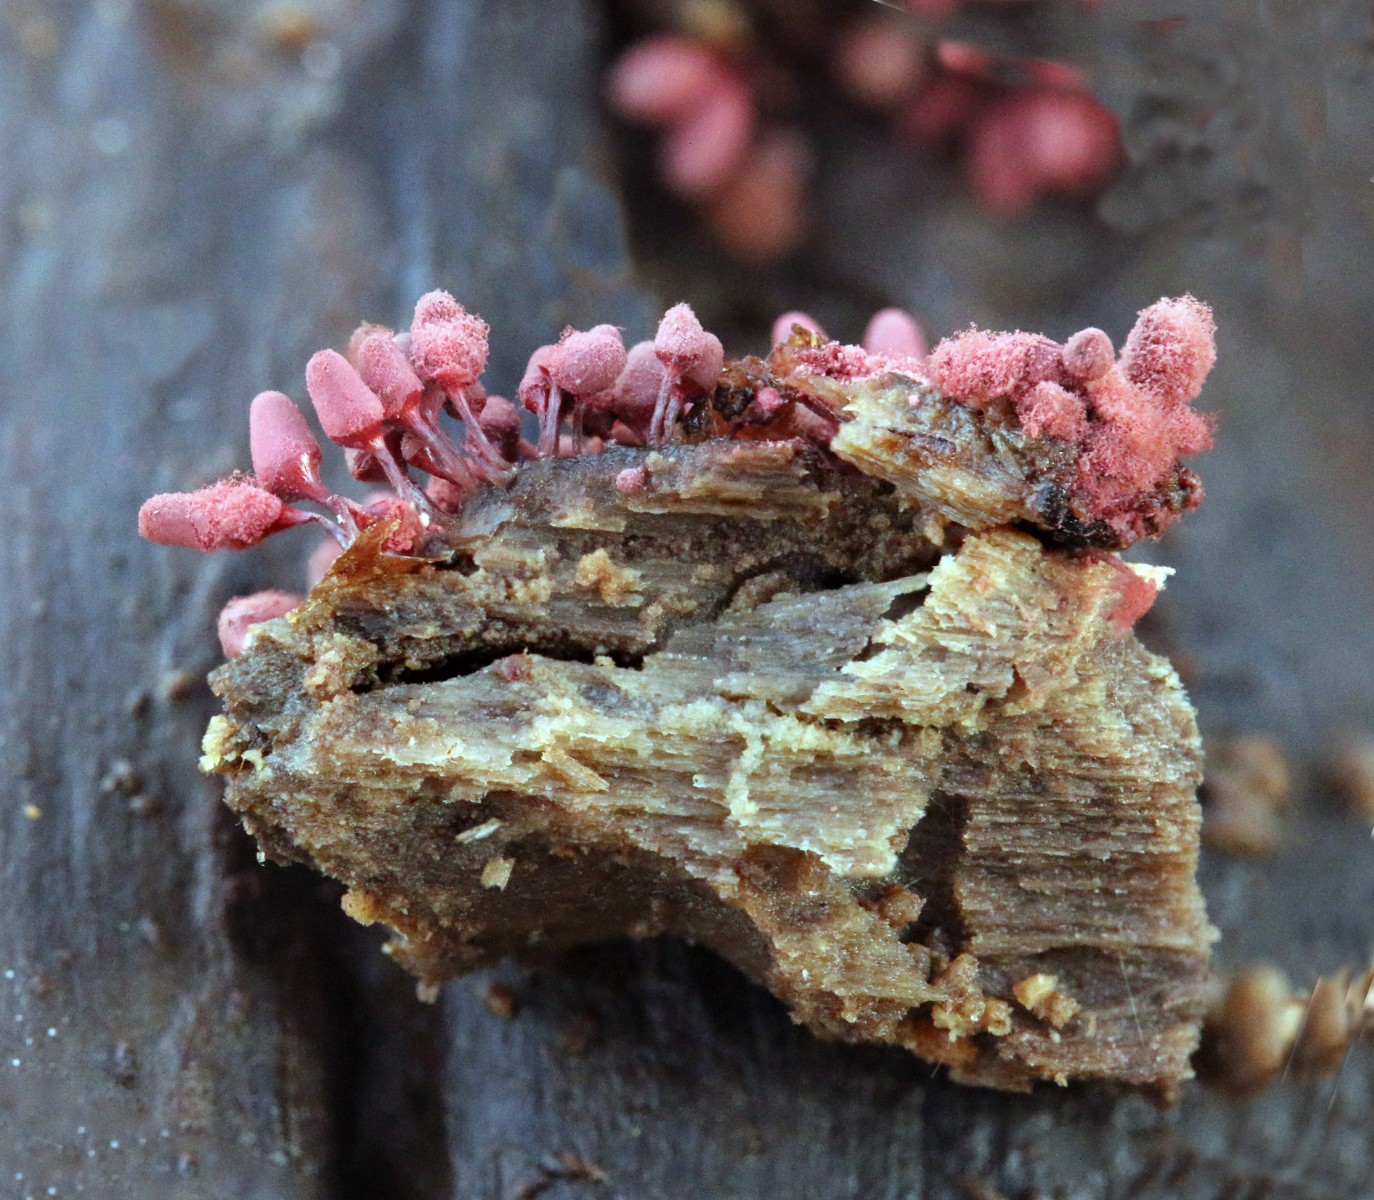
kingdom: Protozoa
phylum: Mycetozoa
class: Myxomycetes
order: Trichiales
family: Arcyriaceae
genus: Arcyria
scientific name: Arcyria denudata
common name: karminrød skålsvøb
